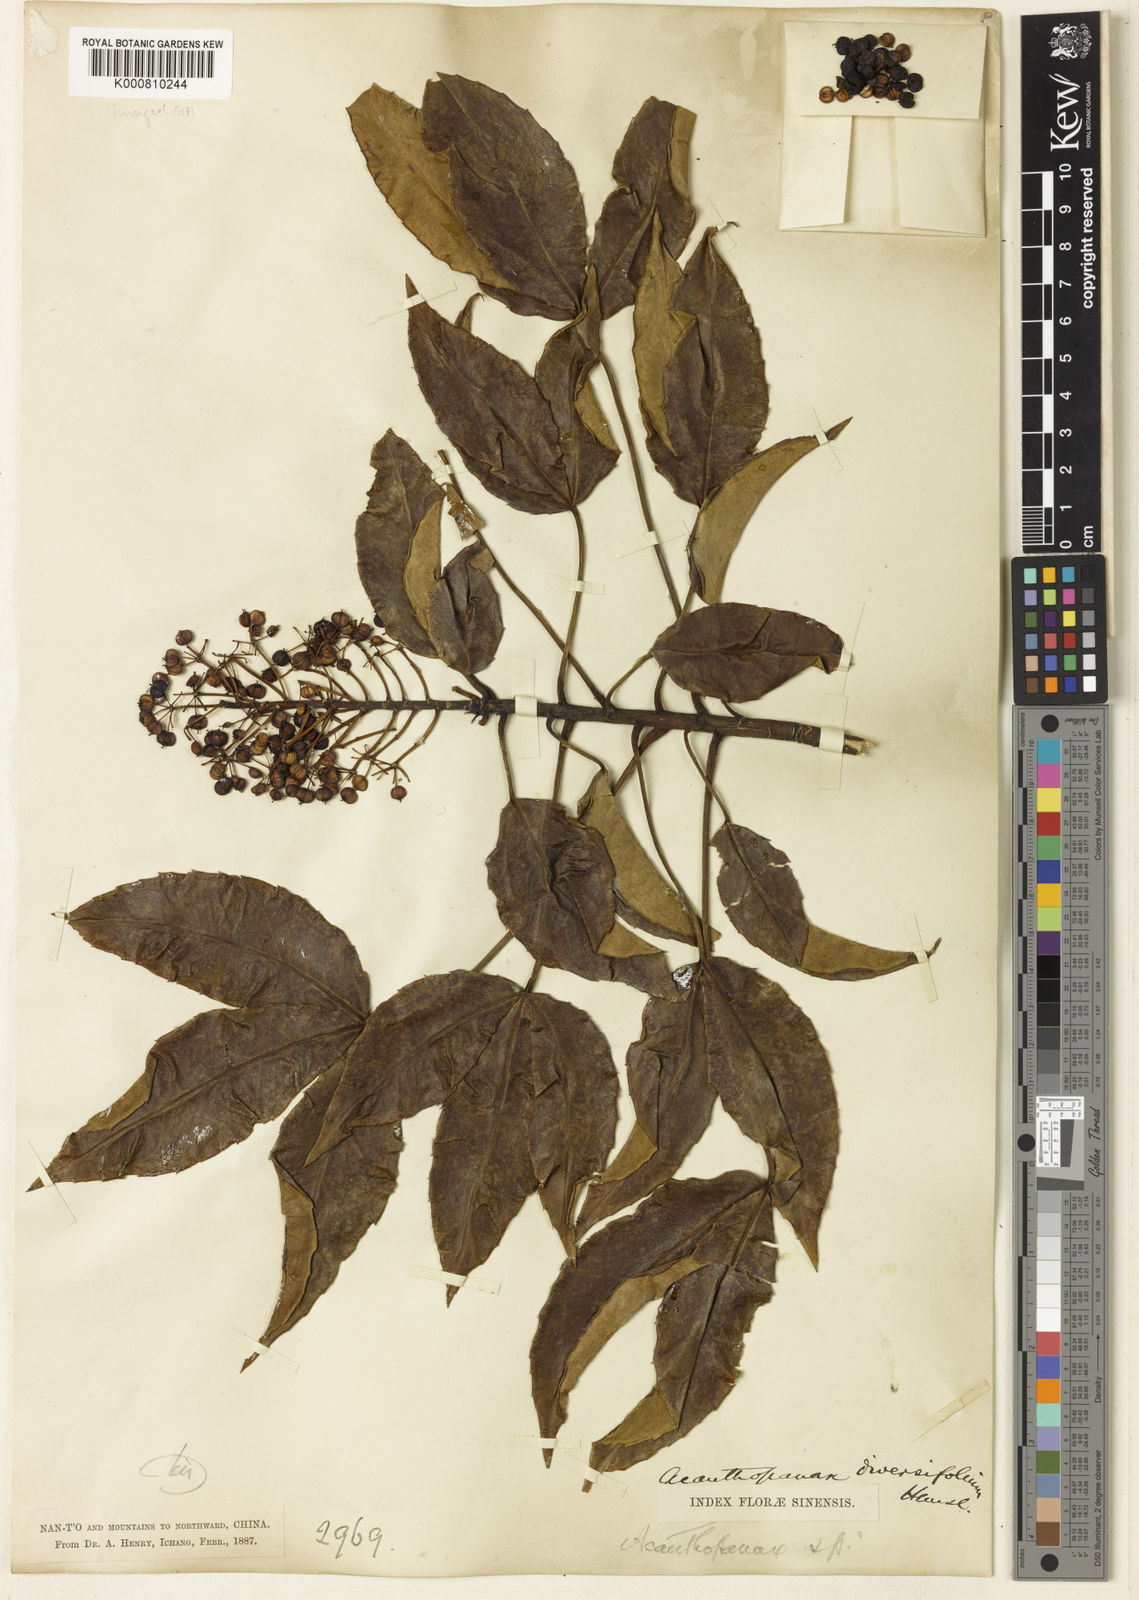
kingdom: Plantae
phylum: Tracheophyta
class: Magnoliopsida
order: Apiales
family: Araliaceae
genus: Metapanax
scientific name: Metapanax davidii
